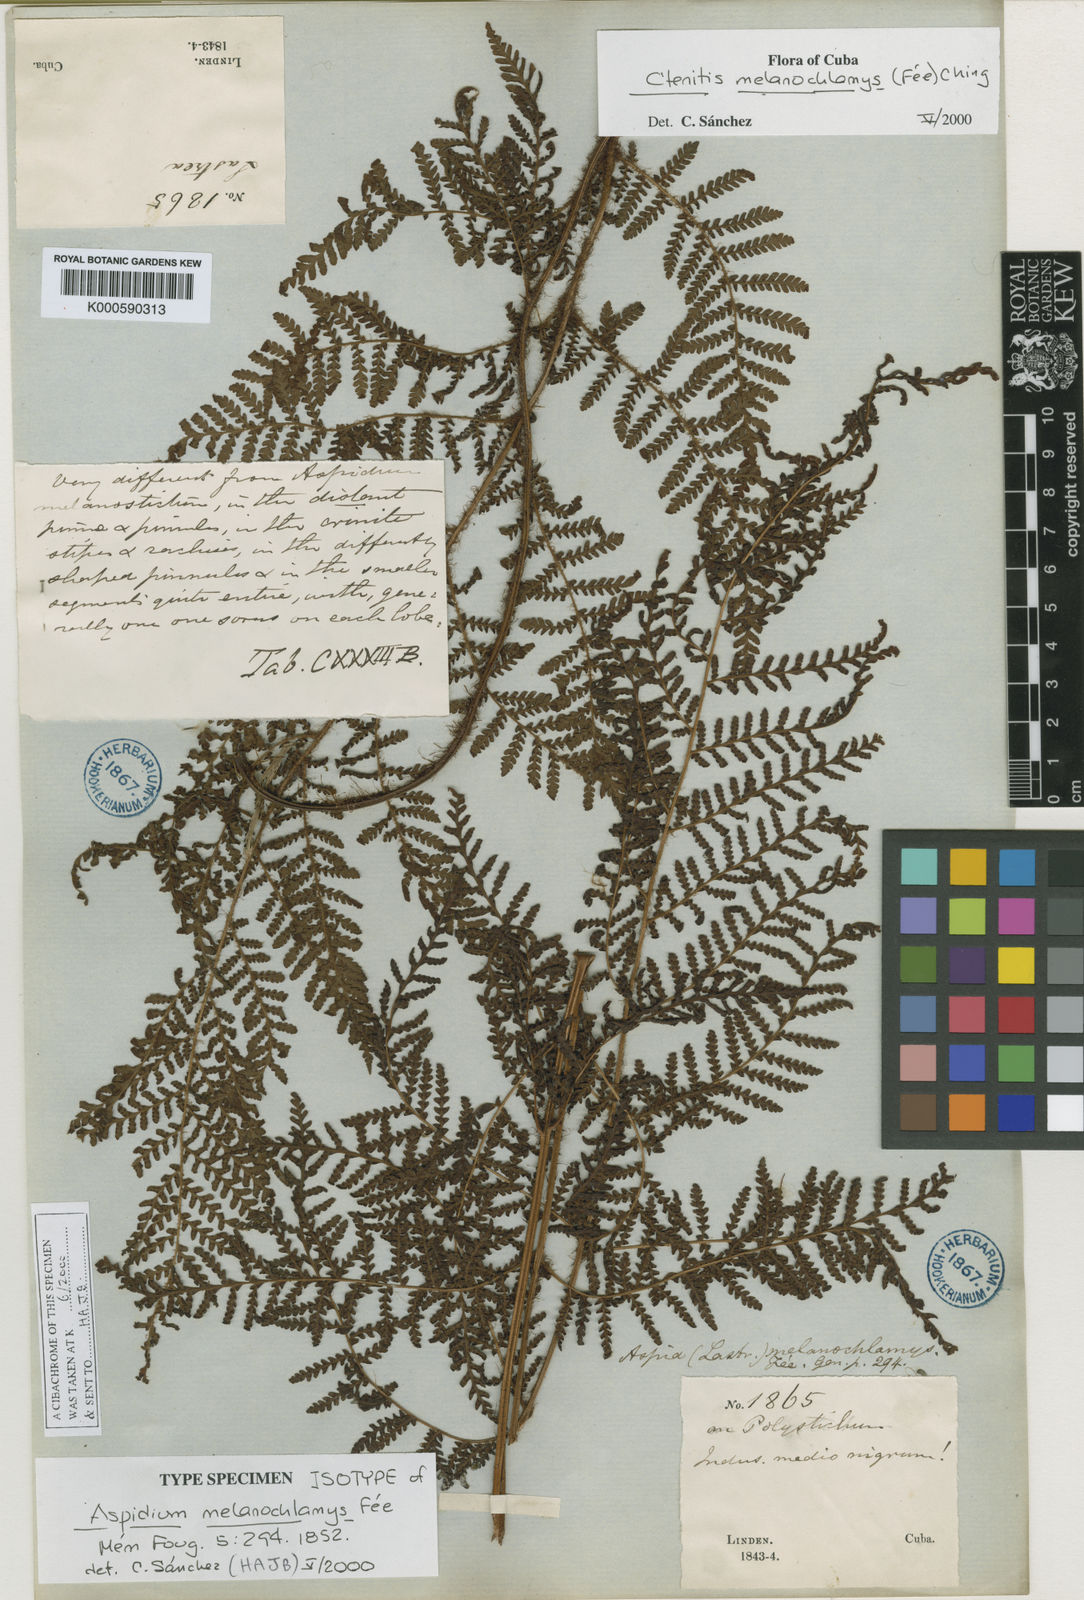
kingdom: Plantae
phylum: Tracheophyta
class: Polypodiopsida
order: Polypodiales
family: Dryopteridaceae
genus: Ctenitis
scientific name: Ctenitis
